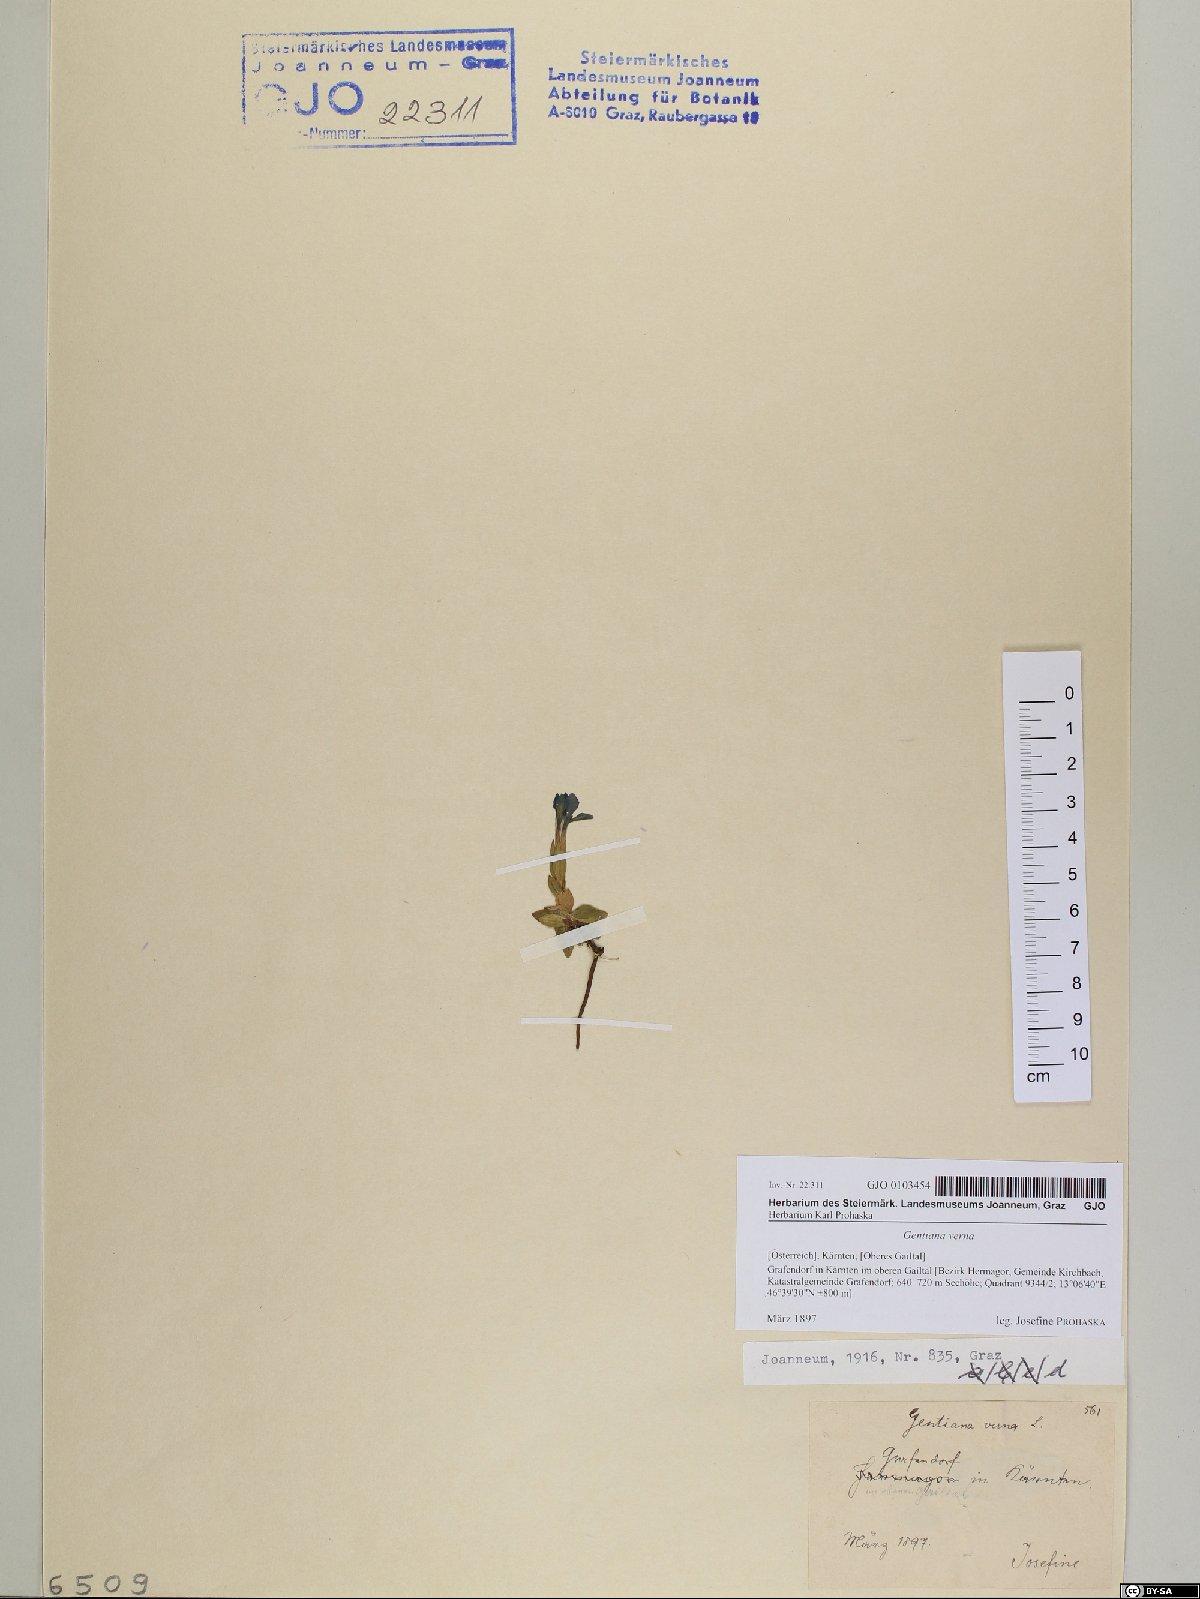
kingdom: Plantae
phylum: Tracheophyta
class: Magnoliopsida
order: Gentianales
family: Gentianaceae
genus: Gentiana
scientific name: Gentiana verna
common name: Spring gentian
